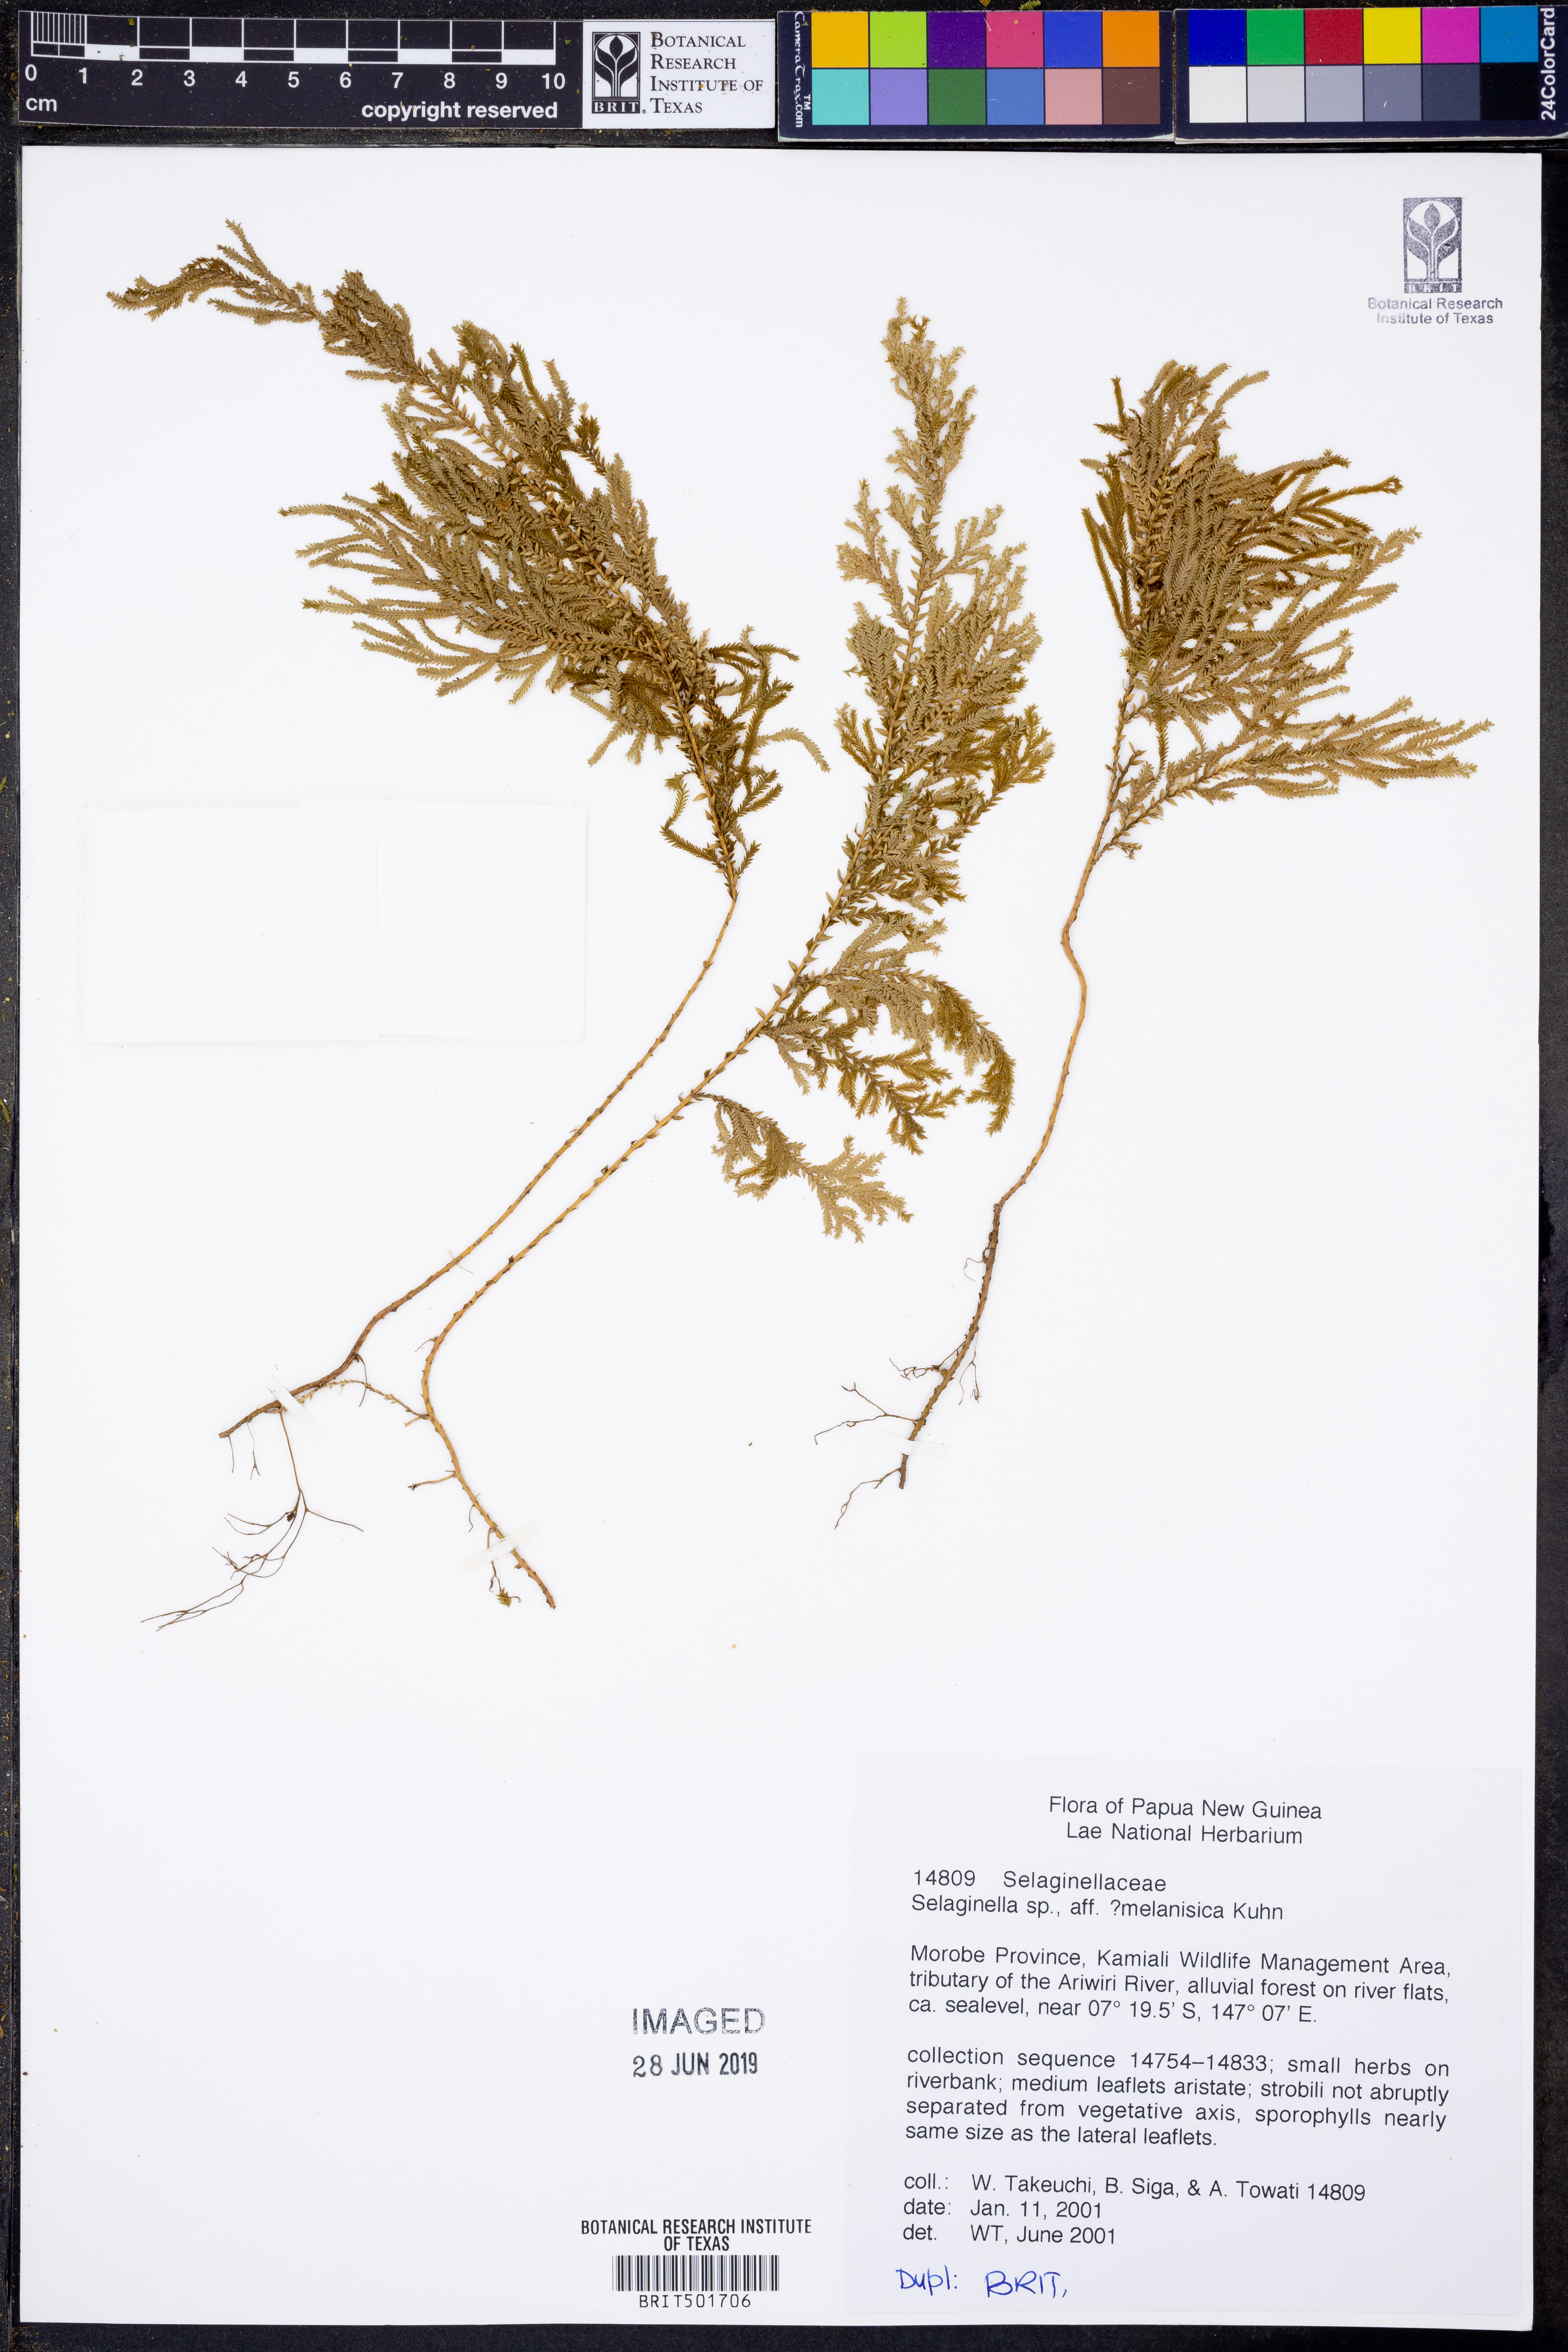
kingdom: Plantae
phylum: Tracheophyta
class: Lycopodiopsida
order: Selaginellales
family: Selaginellaceae
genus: Selaginella
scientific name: Selaginella melanesica
